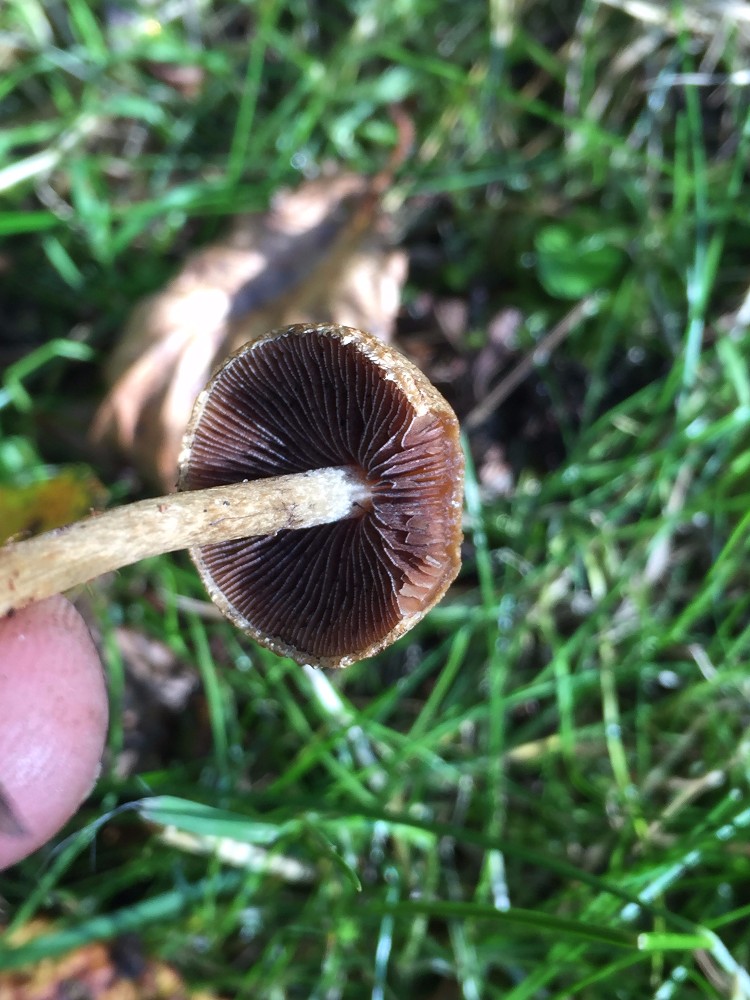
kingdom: Fungi
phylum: Basidiomycota
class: Agaricomycetes
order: Agaricales
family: Psathyrellaceae
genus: Lacrymaria
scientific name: Lacrymaria lacrymabunda
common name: grædende mørkhat
